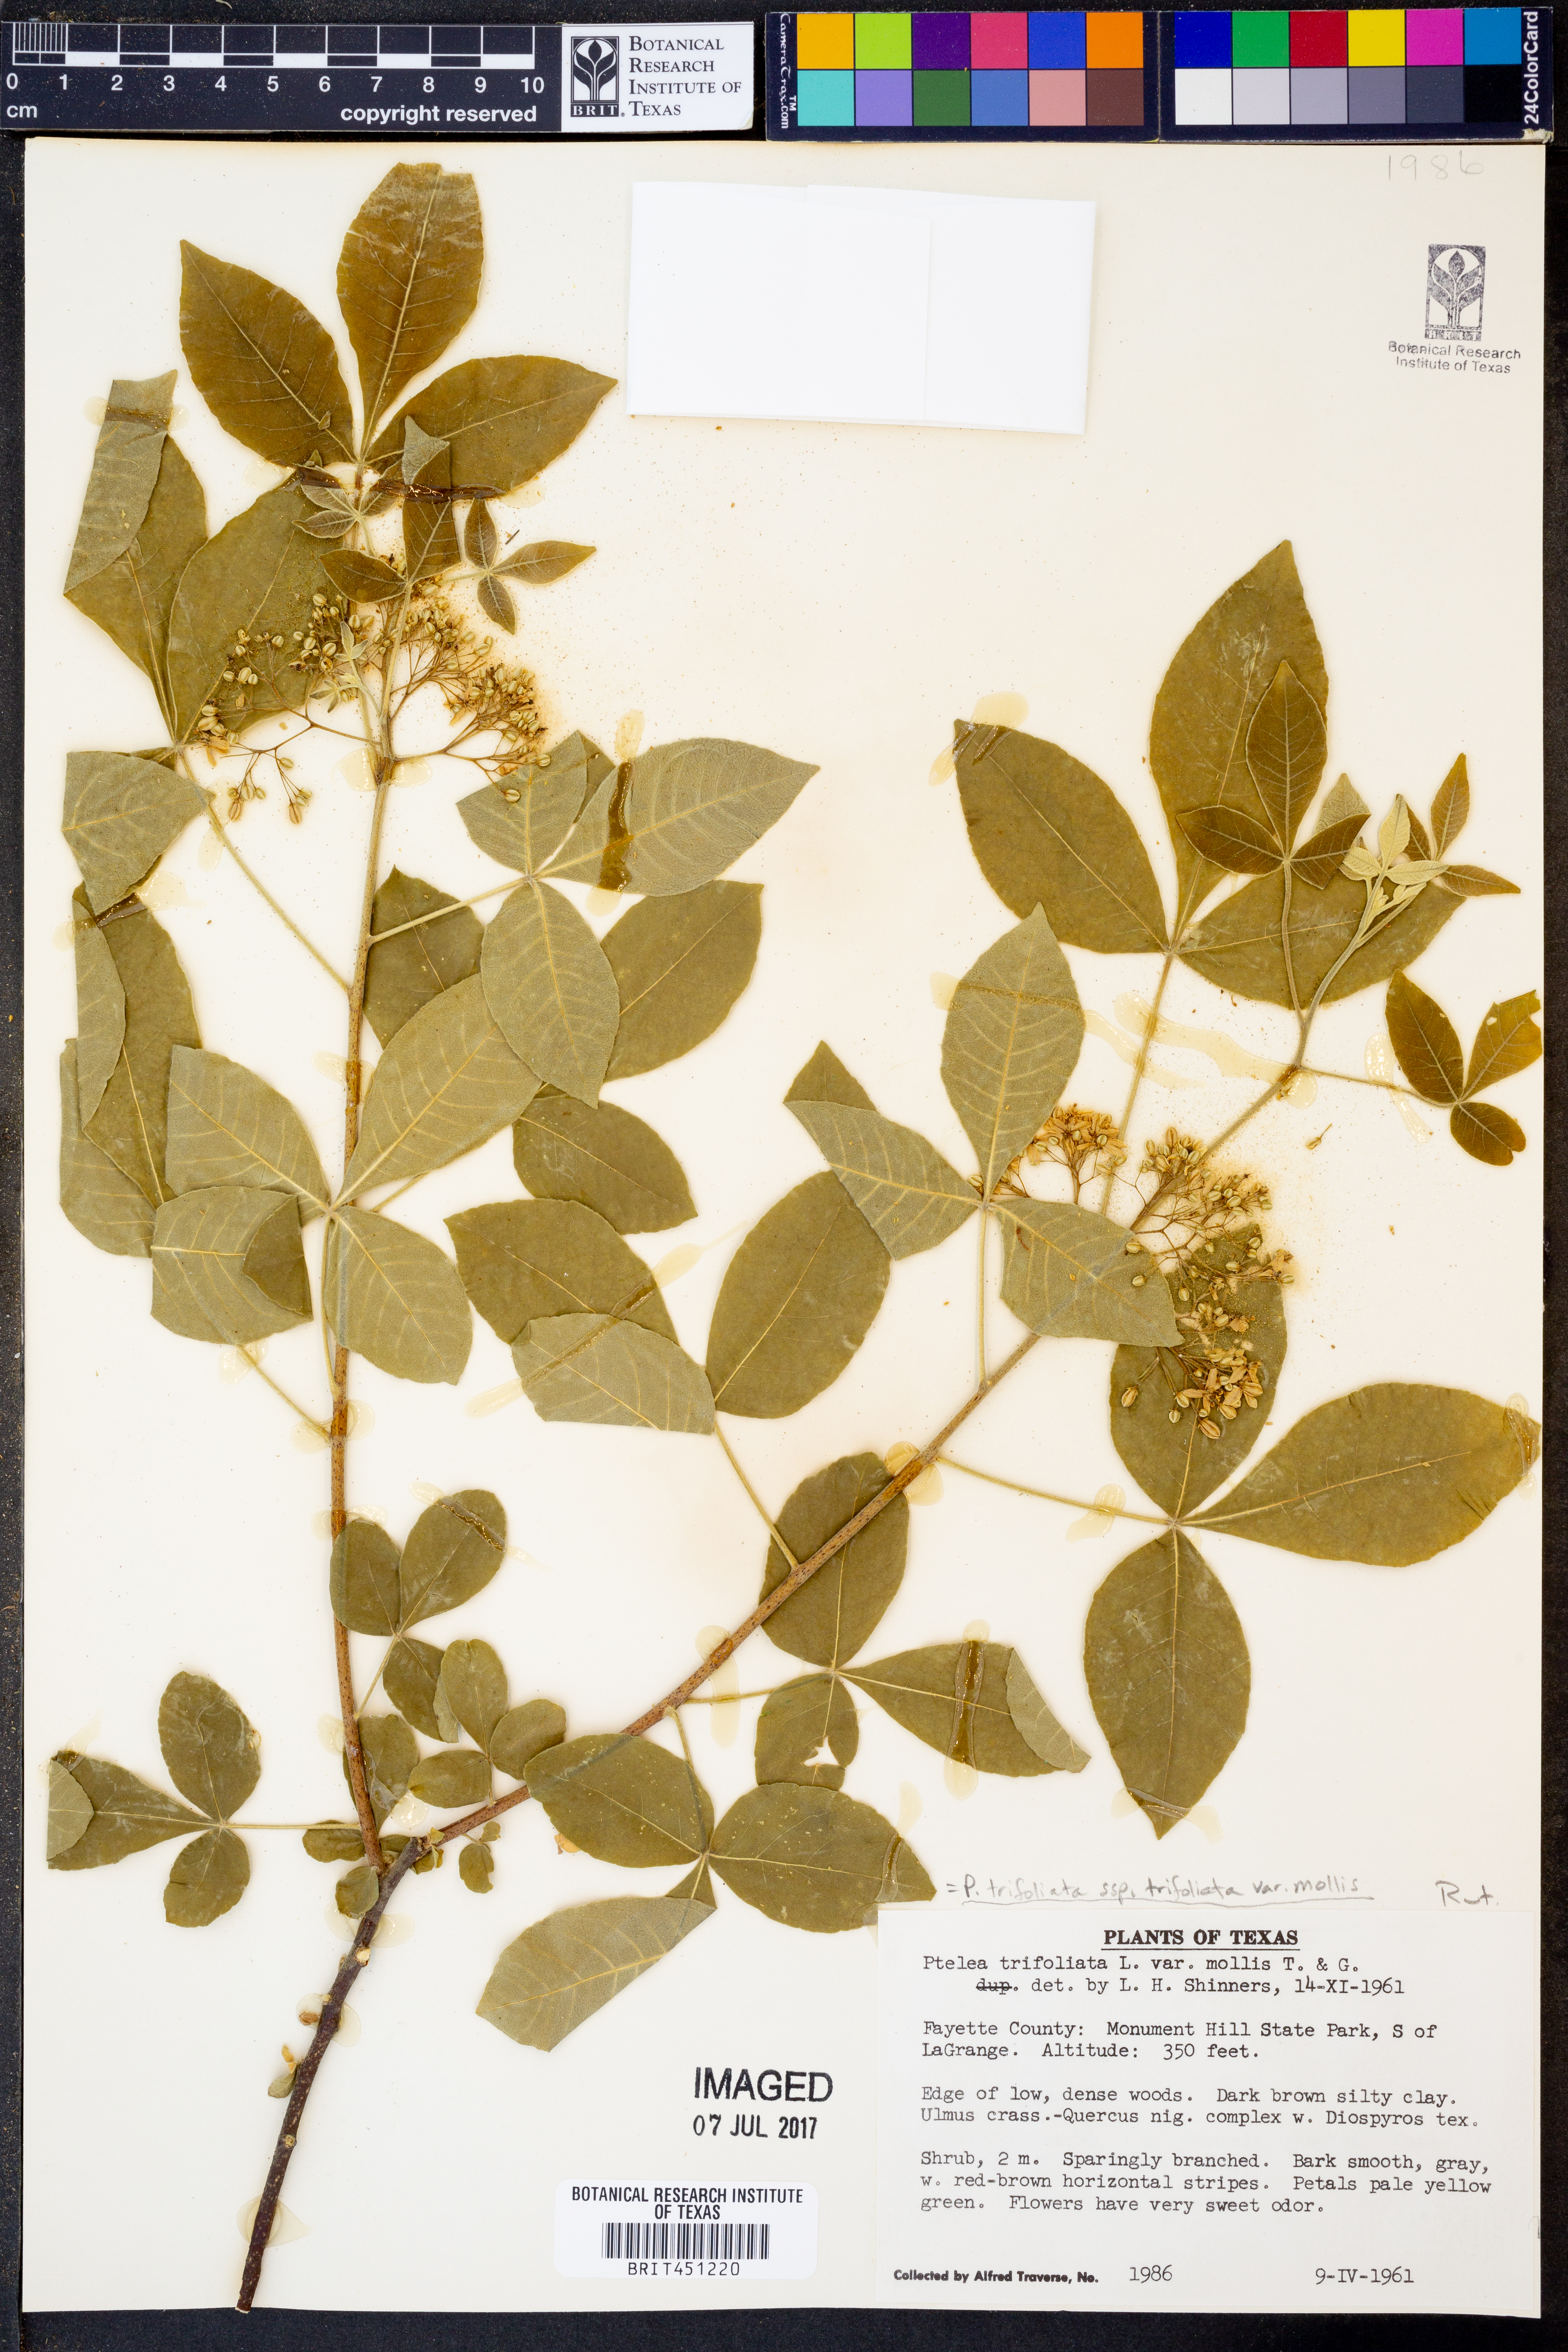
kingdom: Plantae
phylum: Tracheophyta
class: Magnoliopsida
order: Sapindales
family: Rutaceae
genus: Ptelea
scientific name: Ptelea trifoliata
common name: Common hop-tree
